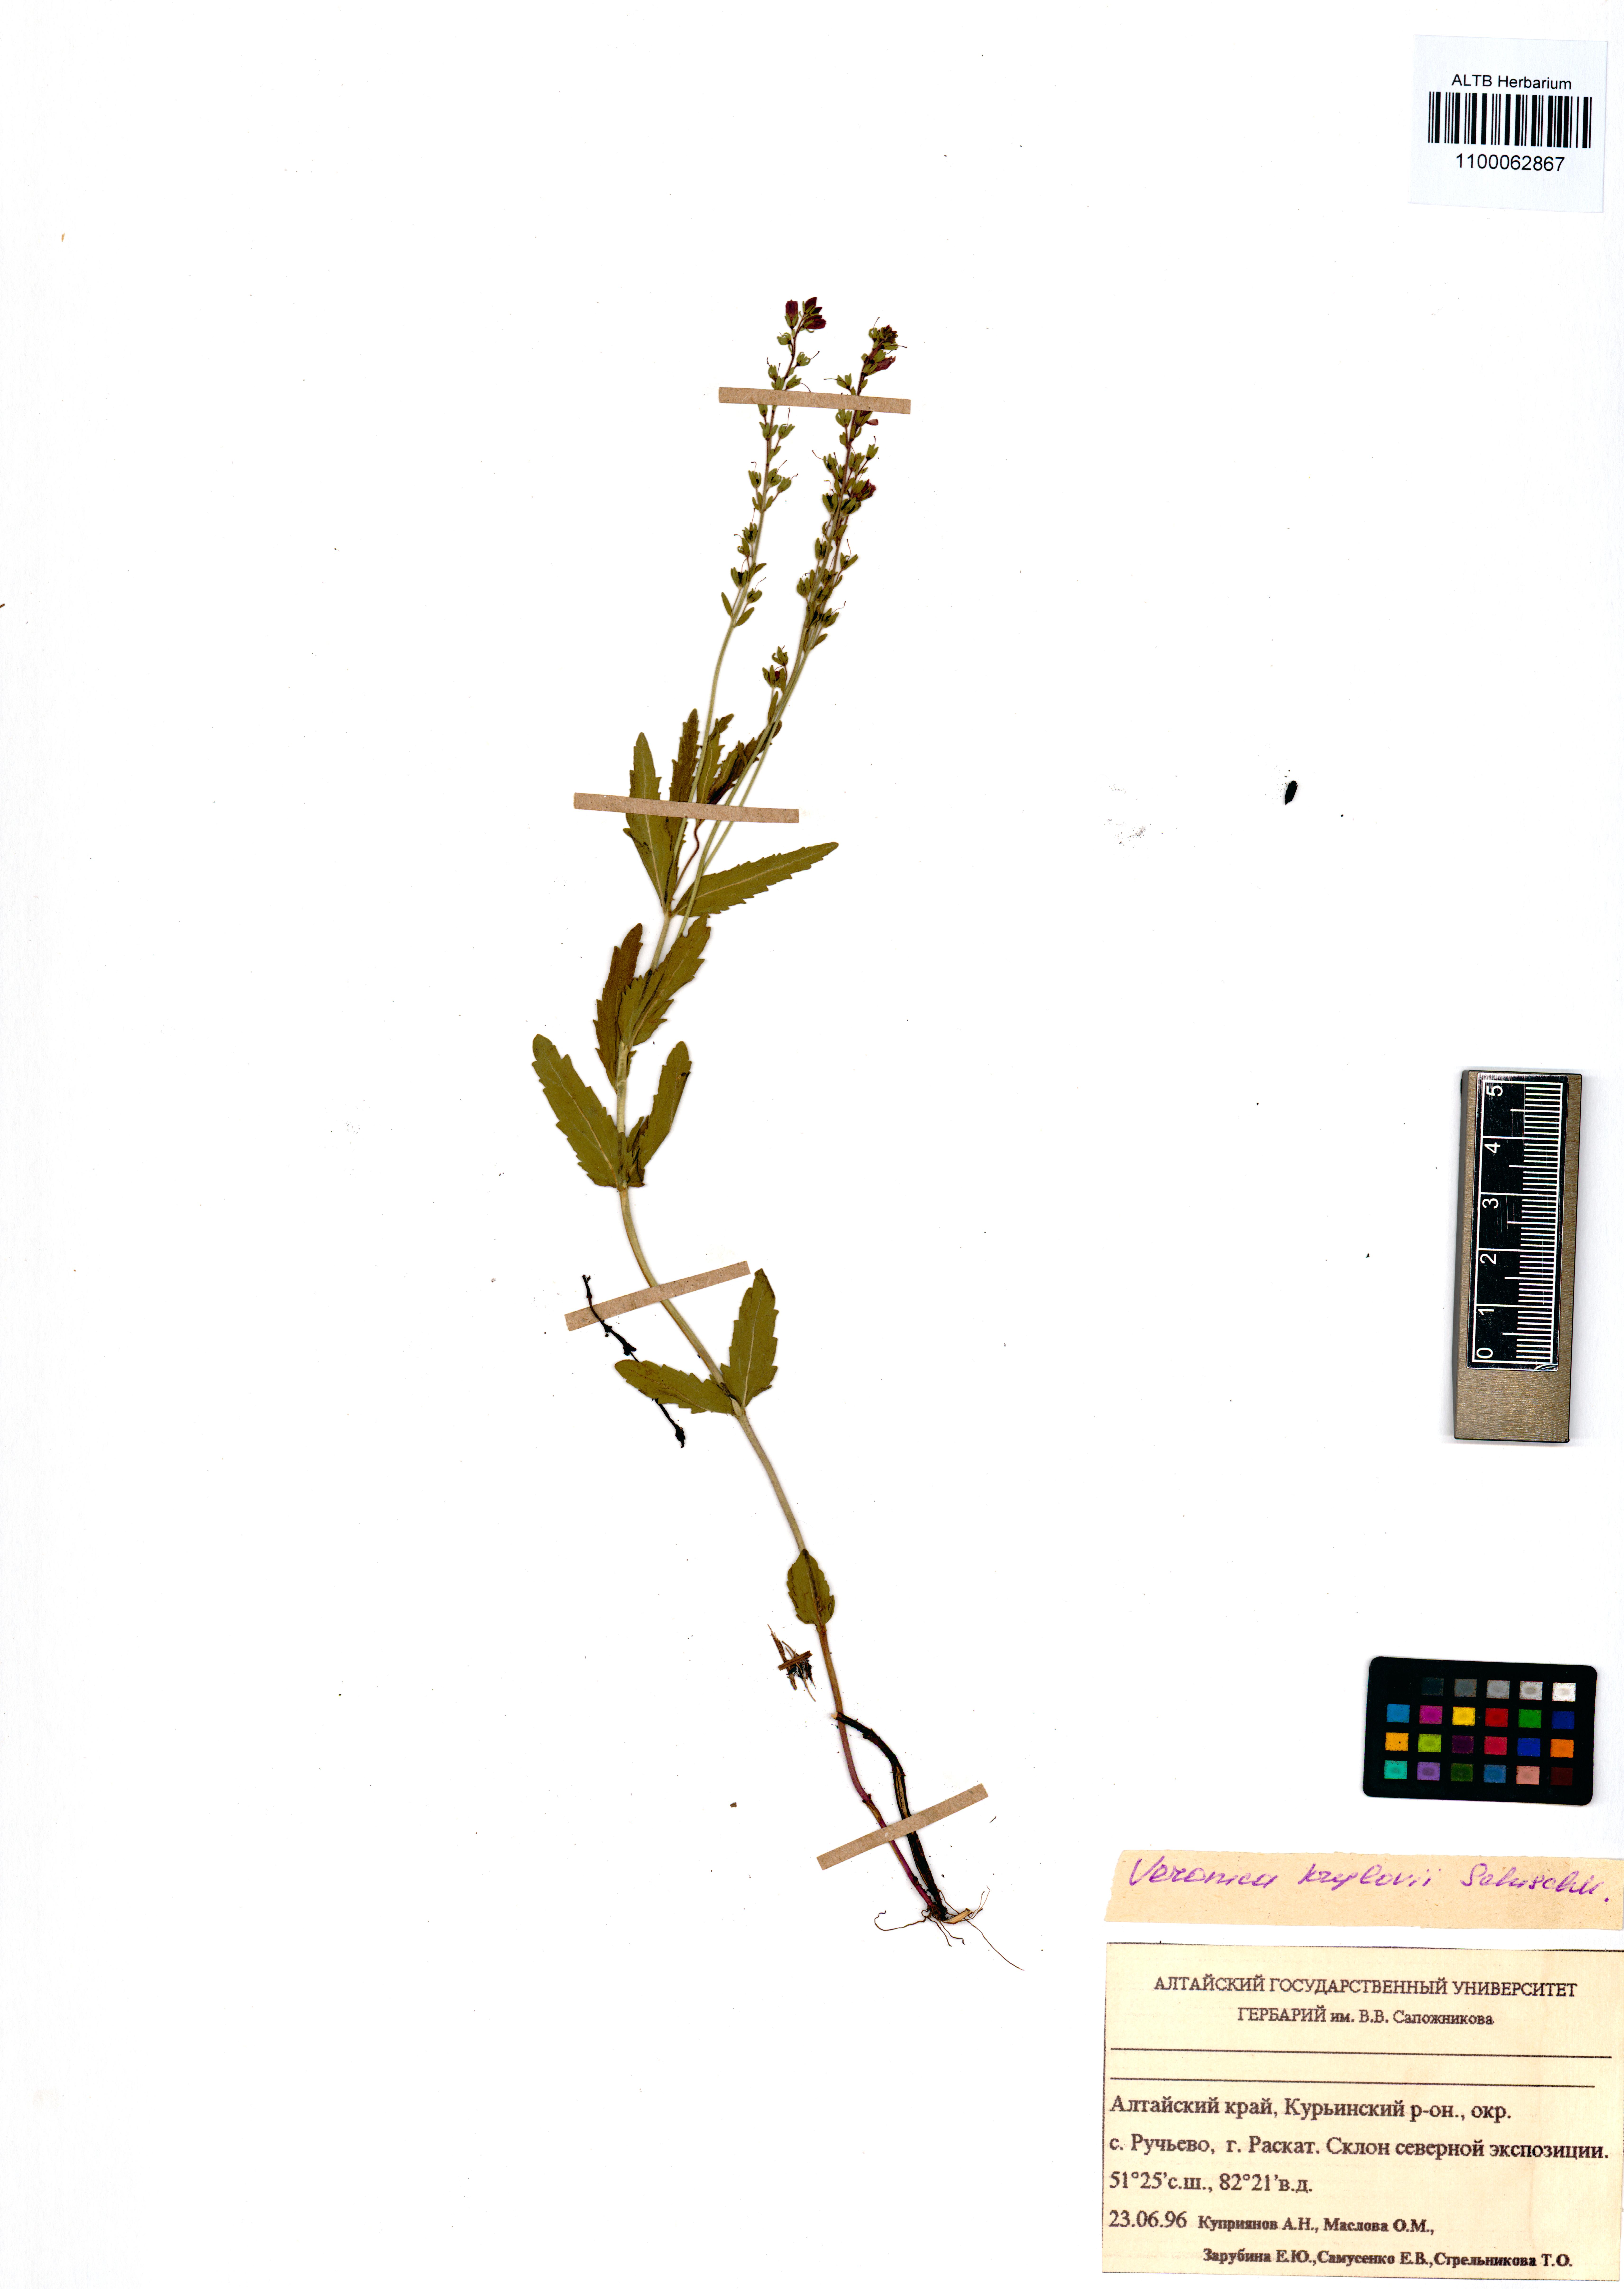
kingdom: Plantae
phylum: Tracheophyta
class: Magnoliopsida
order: Lamiales
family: Plantaginaceae
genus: Veronica
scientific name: Veronica krylovii
